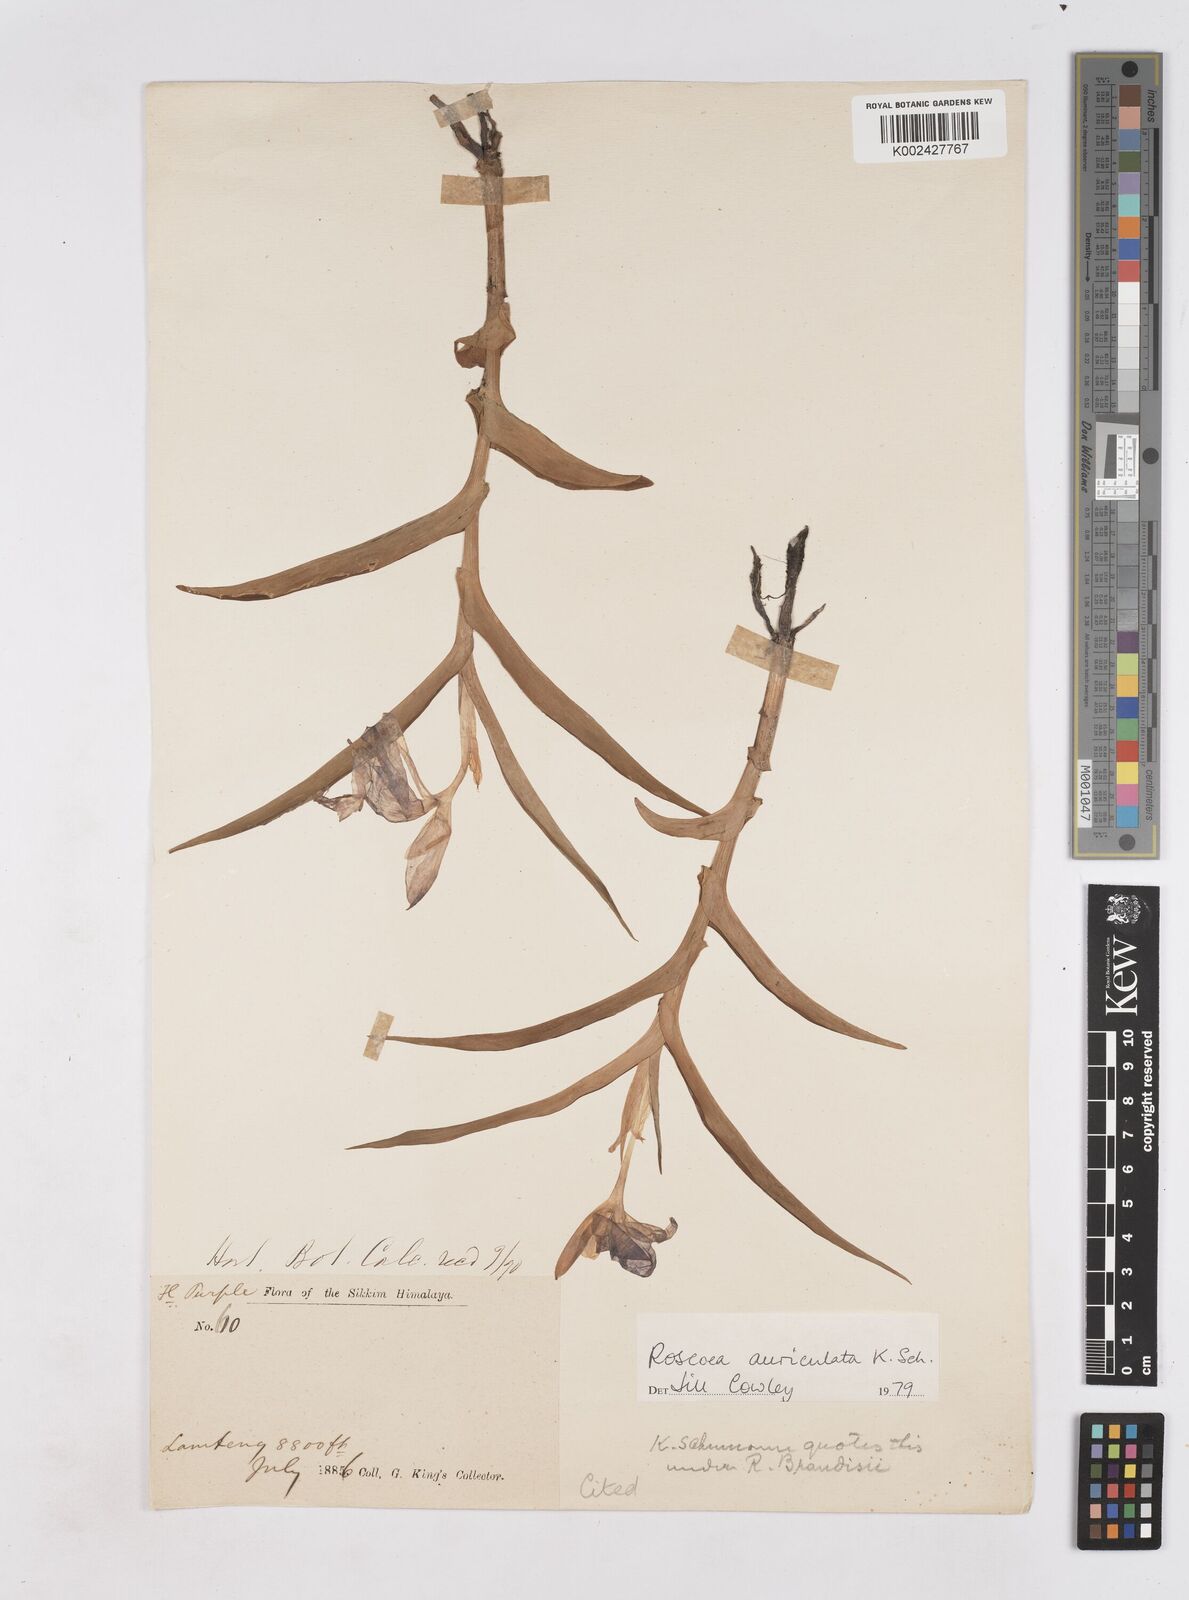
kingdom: Plantae
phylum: Tracheophyta
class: Liliopsida
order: Zingiberales
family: Zingiberaceae
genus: Roscoea
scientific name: Roscoea auriculata
